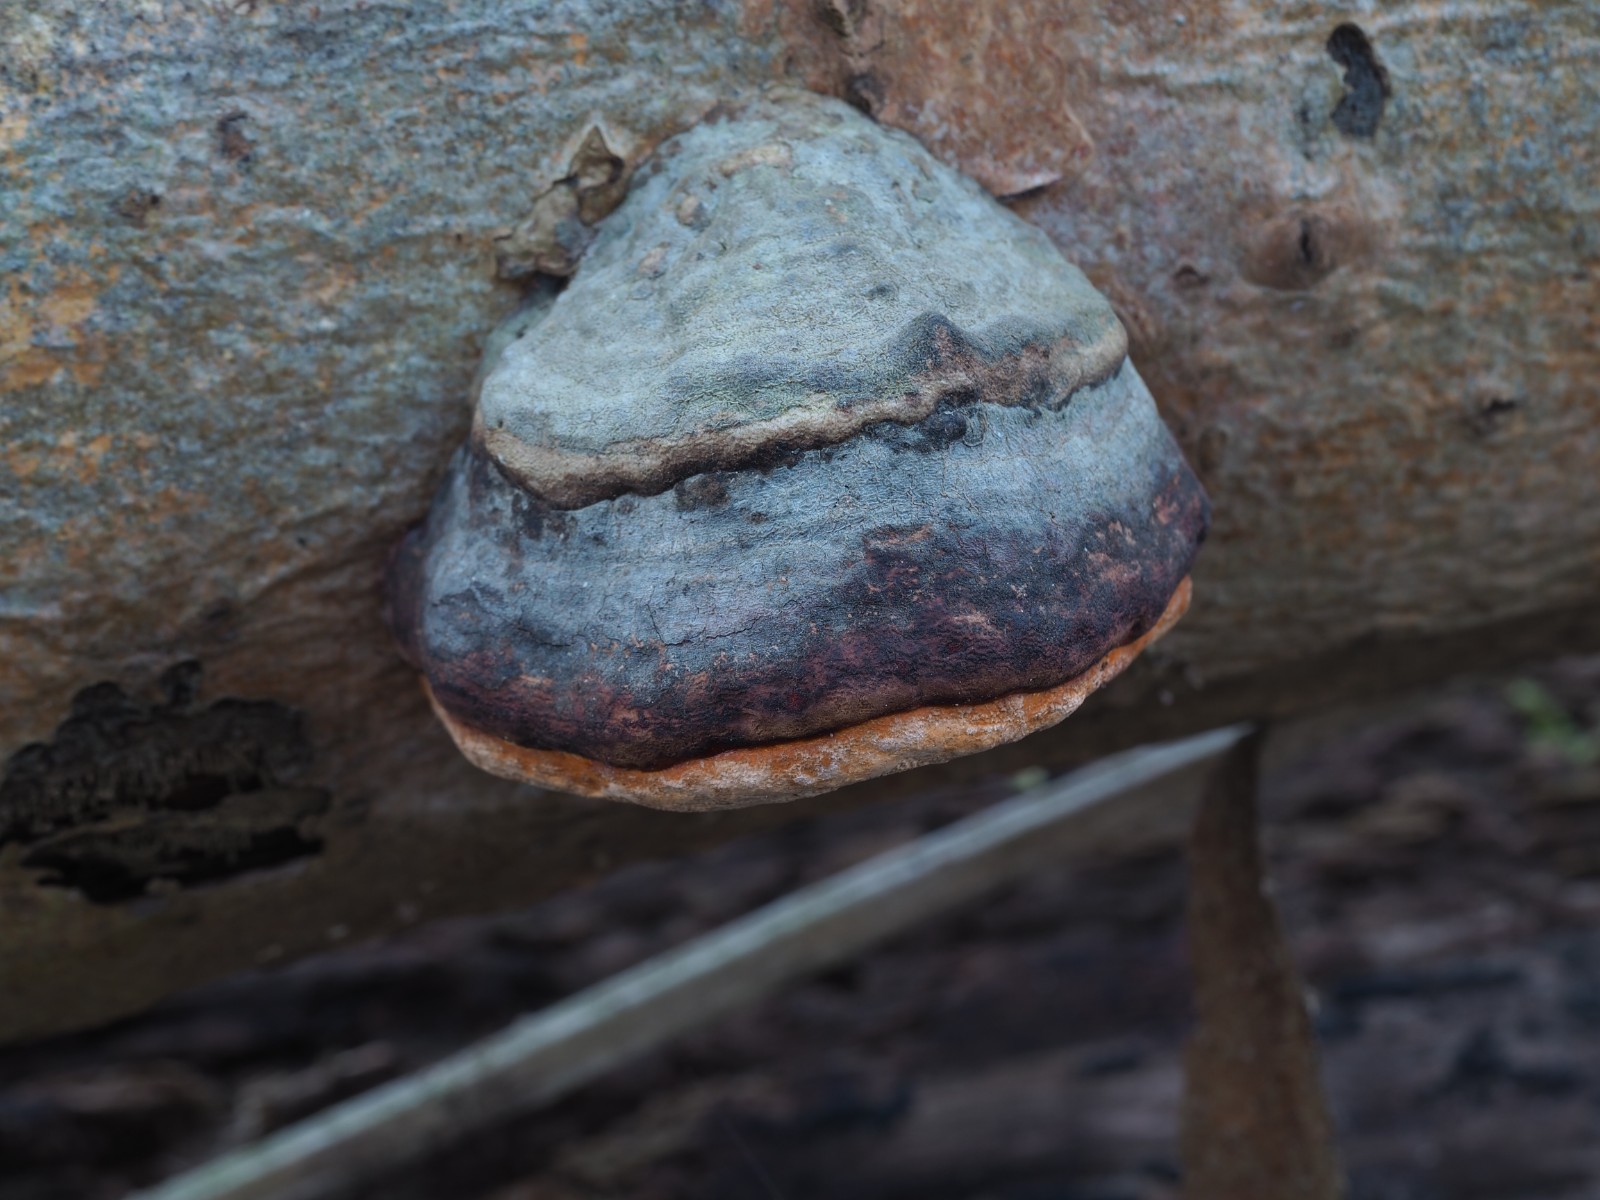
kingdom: Fungi
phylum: Basidiomycota
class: Agaricomycetes
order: Polyporales
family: Fomitopsidaceae
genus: Fomitopsis
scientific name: Fomitopsis pinicola
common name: randbæltet hovporesvamp
